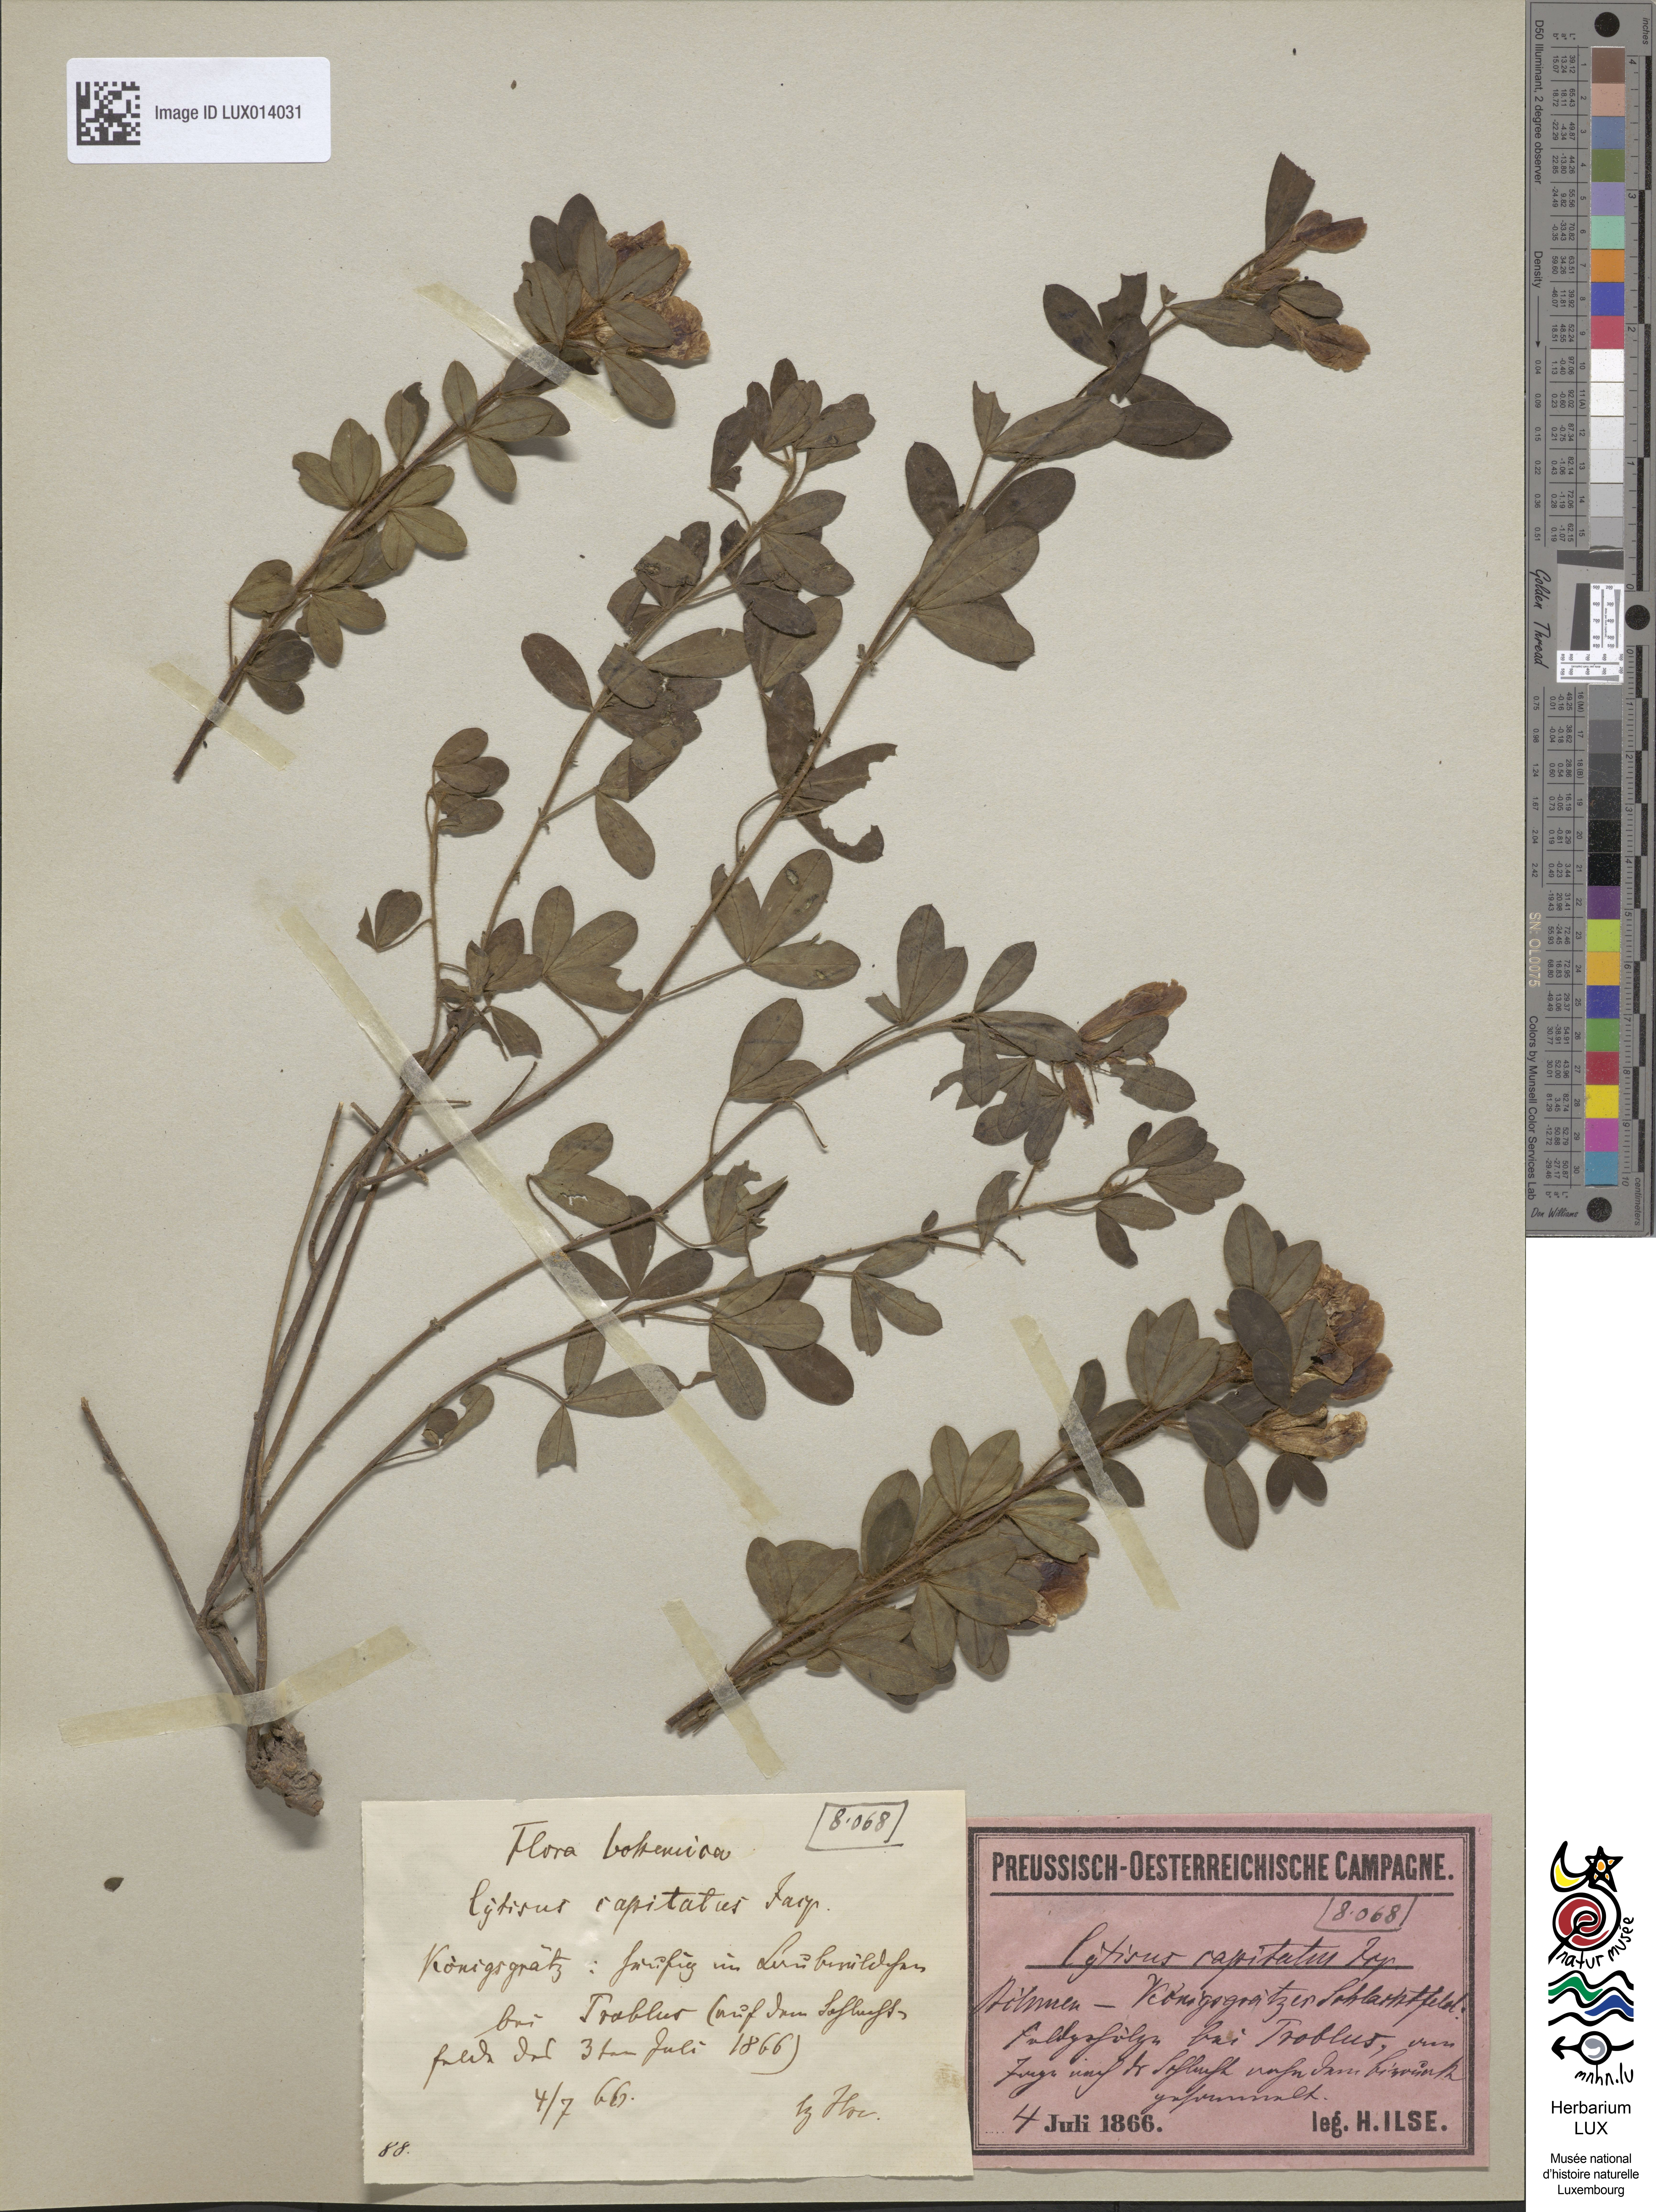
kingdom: Plantae
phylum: Tracheophyta
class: Magnoliopsida
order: Fabales
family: Fabaceae
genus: Chamaecytisus
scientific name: Chamaecytisus hirsutus
